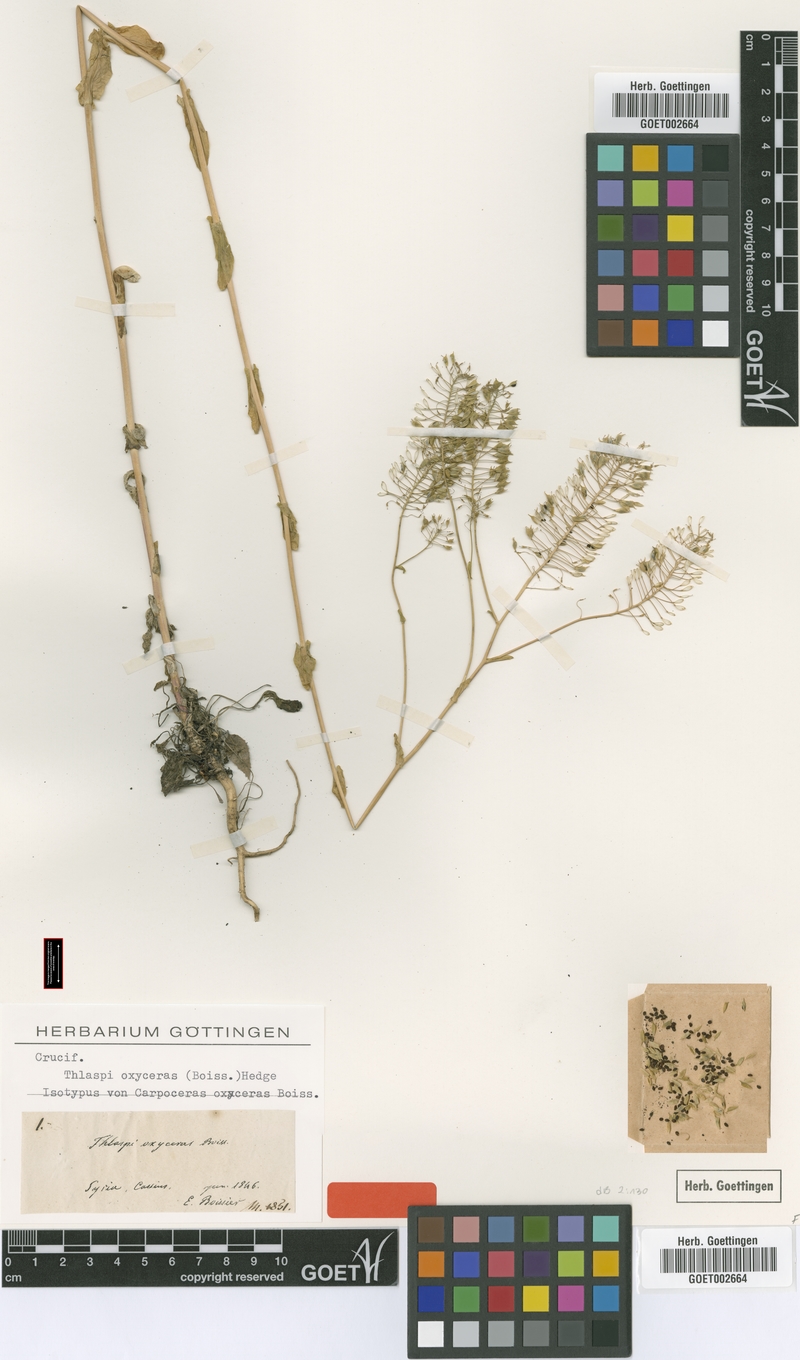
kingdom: Plantae
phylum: Tracheophyta
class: Magnoliopsida
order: Brassicales
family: Brassicaceae
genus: Noccaea
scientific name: Noccaea oxyceras
